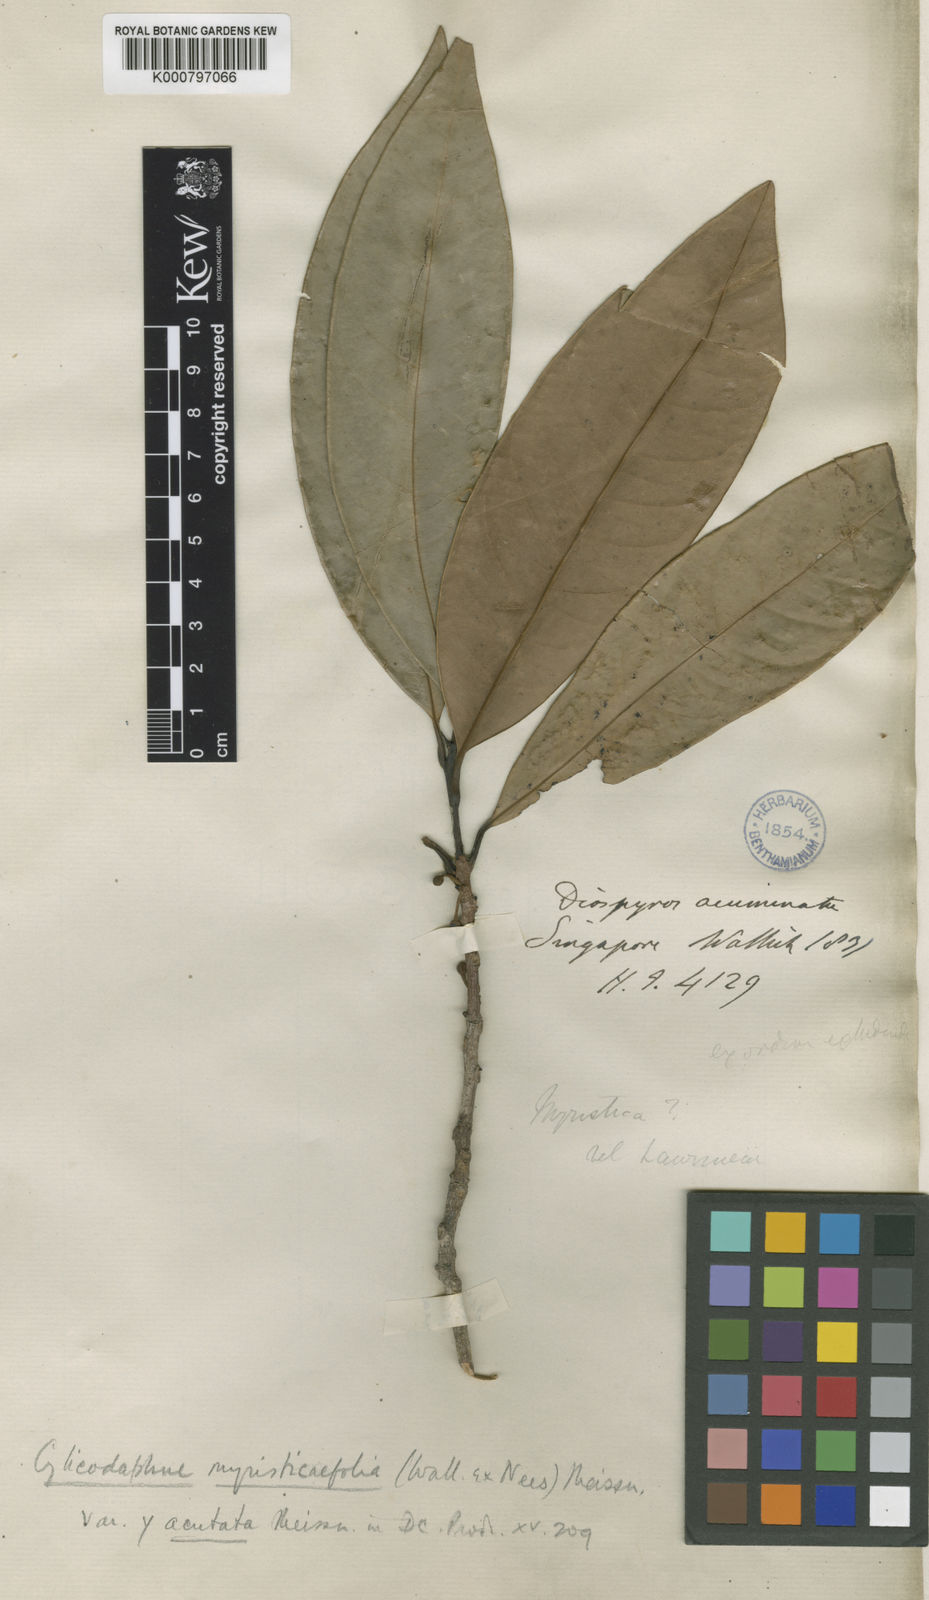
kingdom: Plantae
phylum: Tracheophyta
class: Magnoliopsida
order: Laurales
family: Lauraceae
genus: Litsea
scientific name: Litsea myristicifolia
